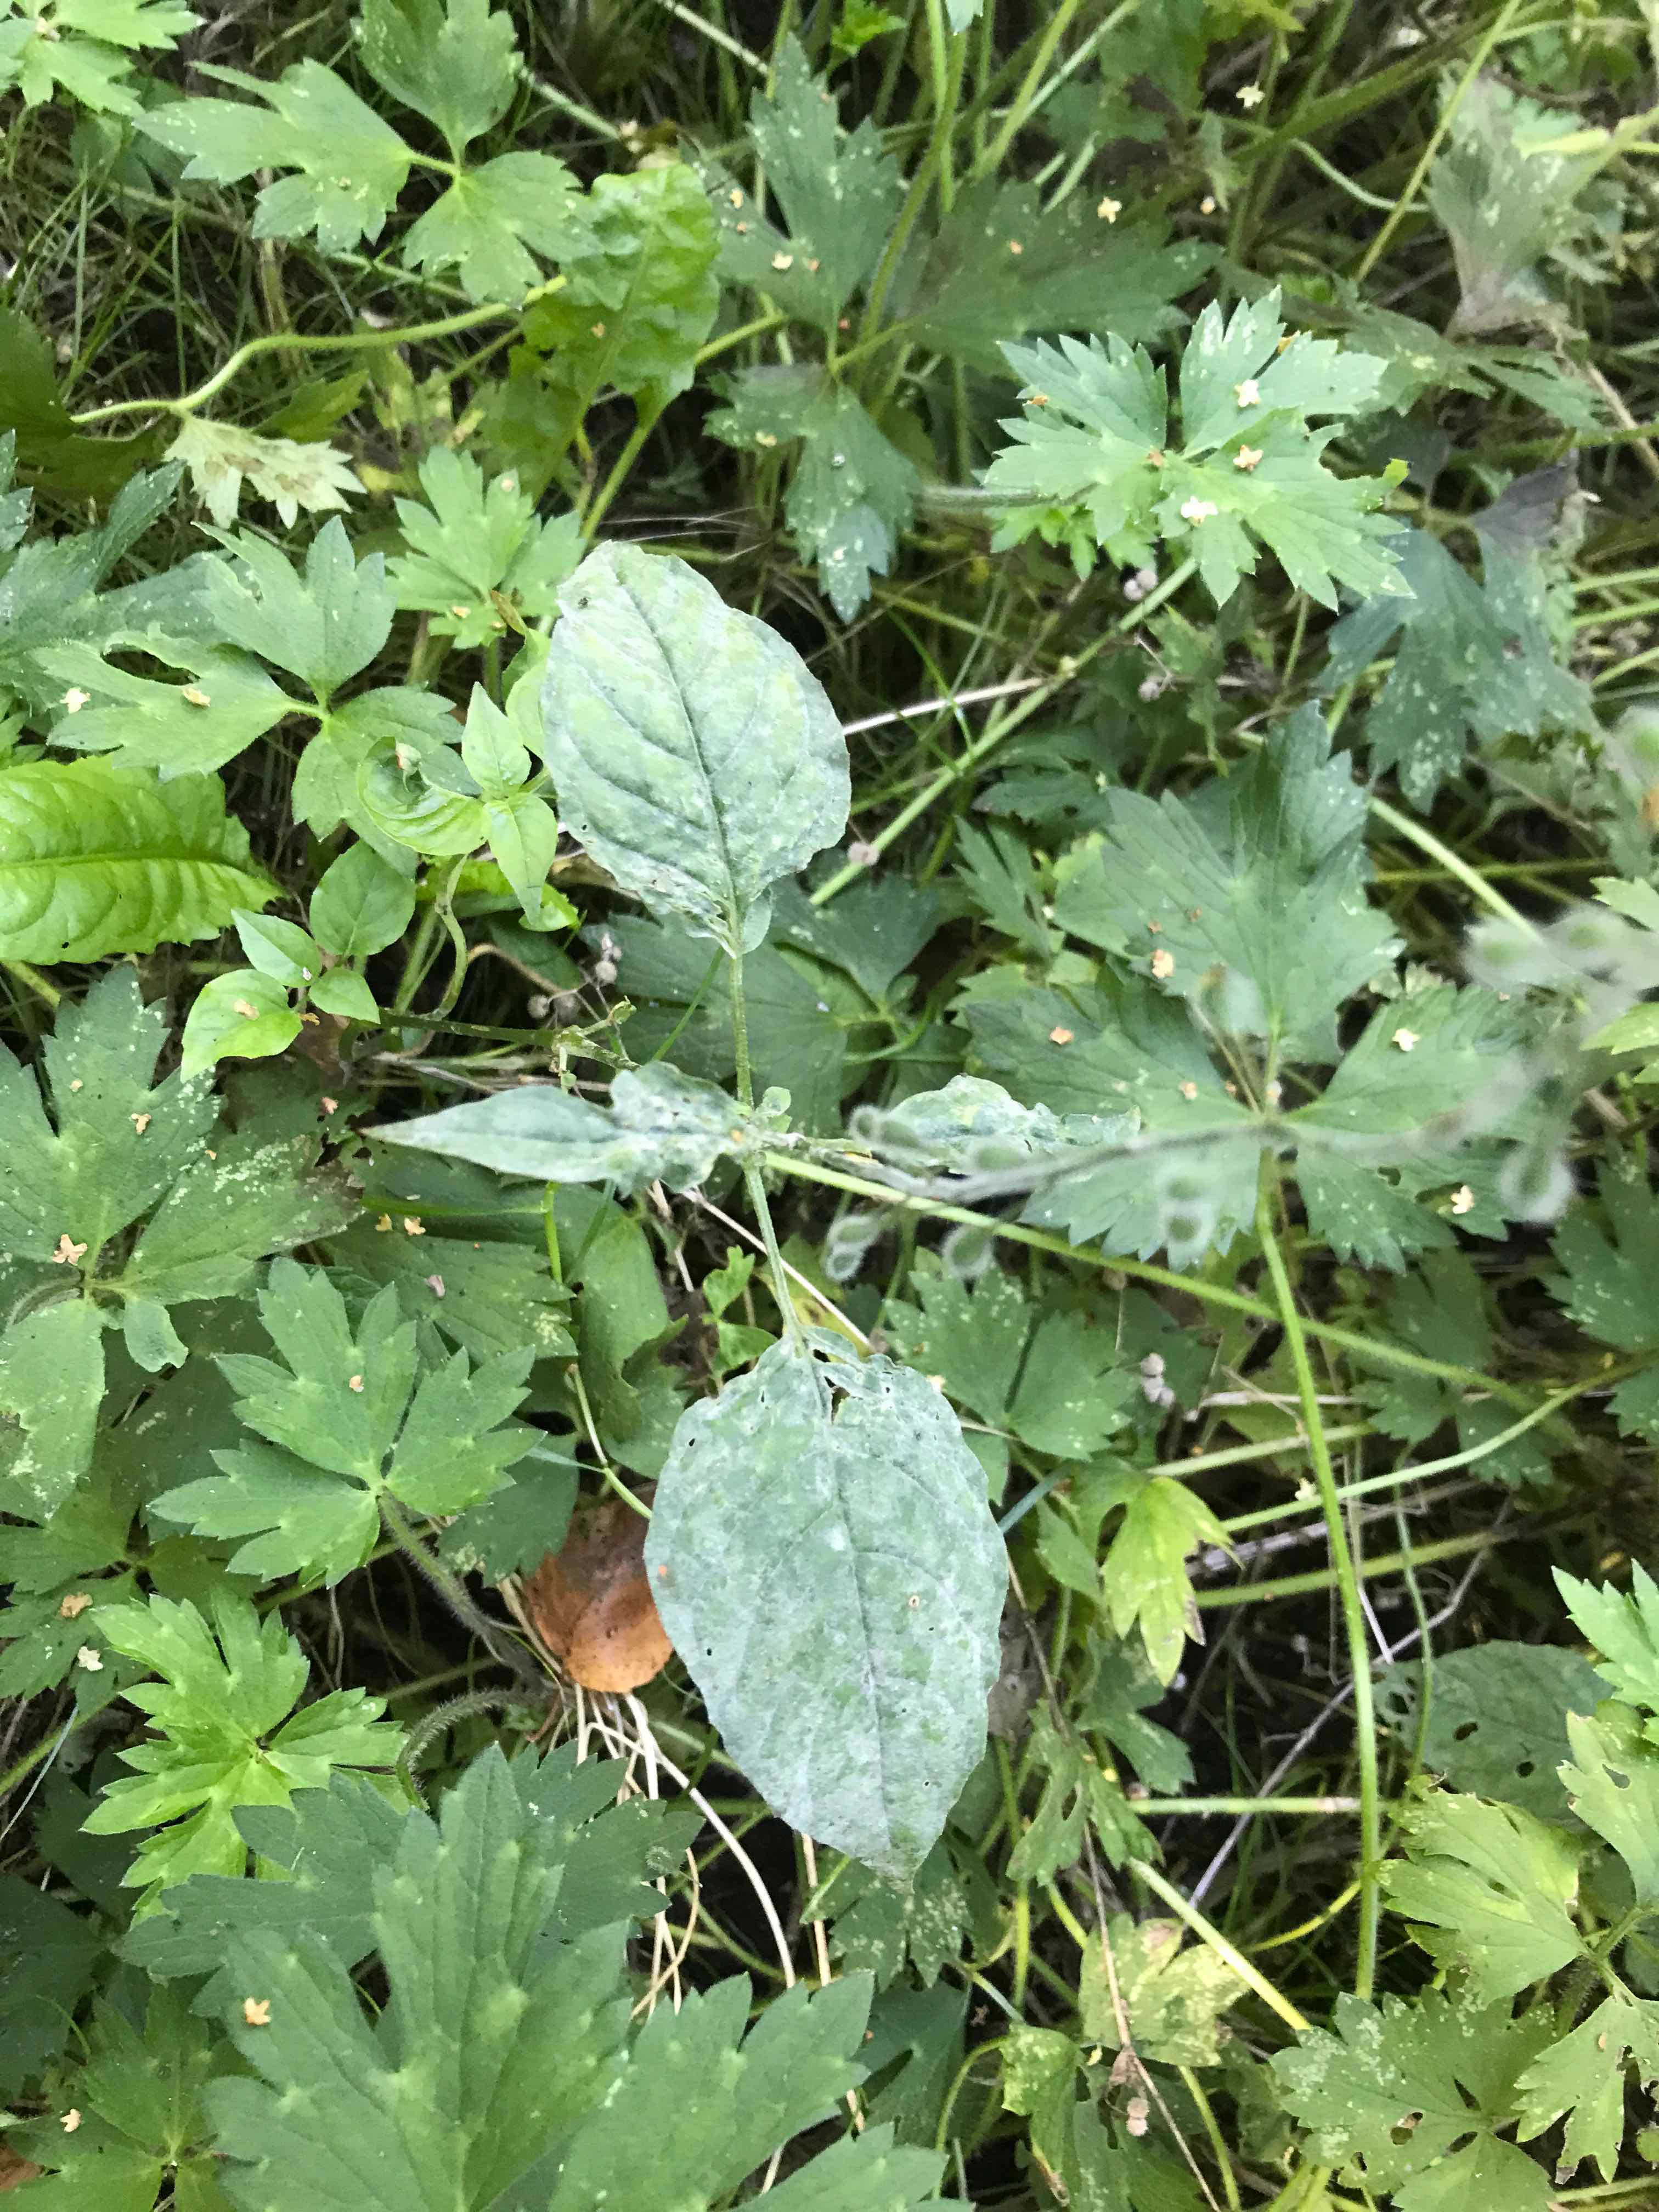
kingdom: Fungi
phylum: Ascomycota
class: Leotiomycetes
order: Helotiales
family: Erysiphaceae
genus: Erysiphe
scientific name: Erysiphe circaeae
